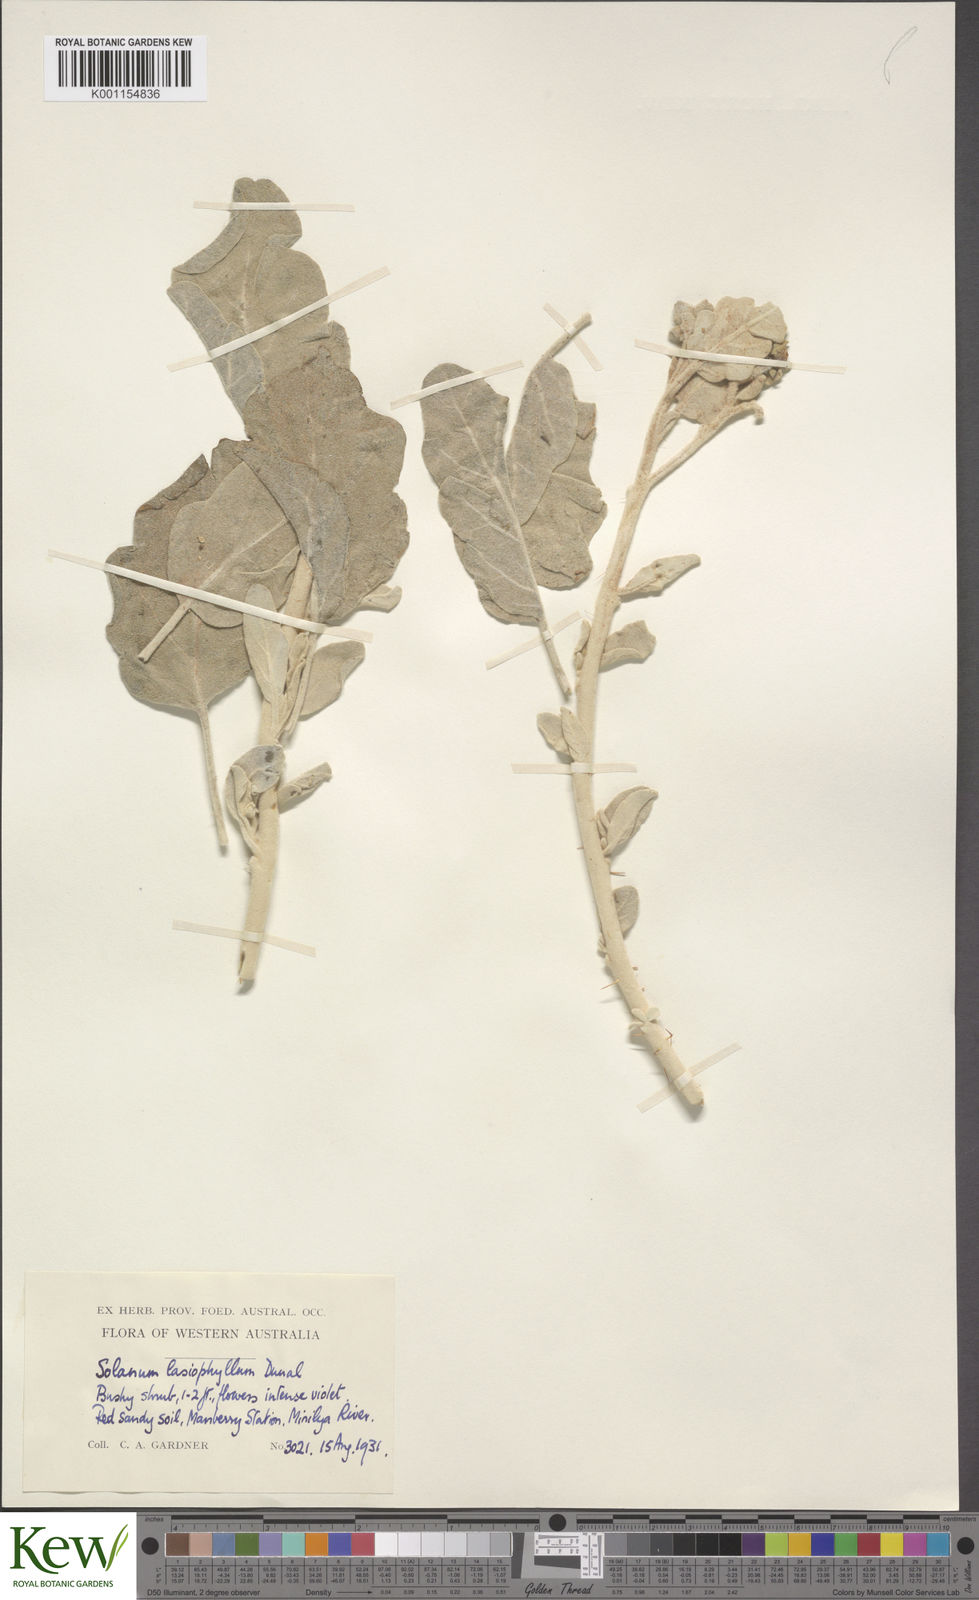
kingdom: Plantae
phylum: Tracheophyta
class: Magnoliopsida
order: Solanales
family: Solanaceae
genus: Solanum
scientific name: Solanum lasiophyllum
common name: Flannelbush
